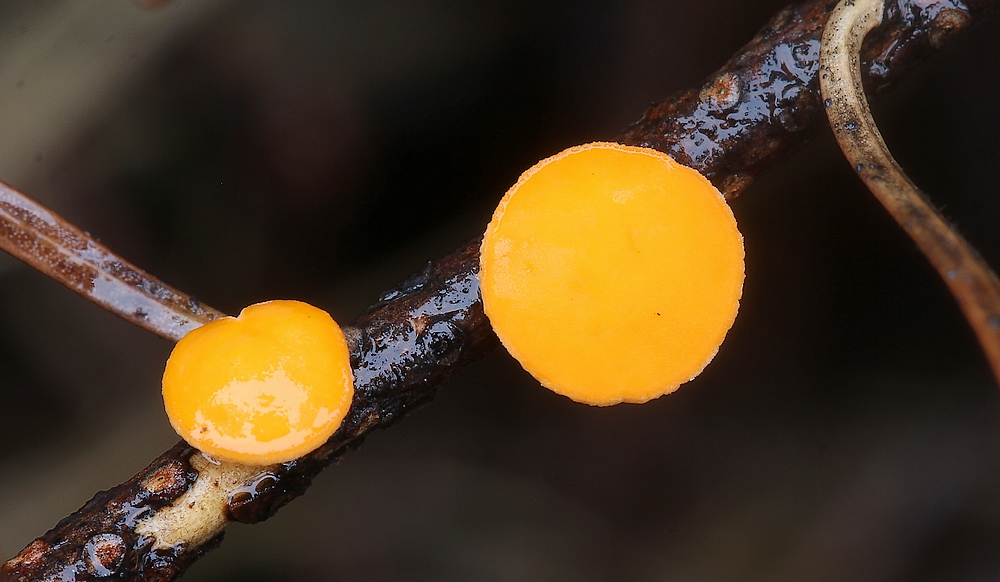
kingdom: Fungi
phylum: Ascomycota
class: Pezizomycetes
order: Pezizales
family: Sarcoscyphaceae
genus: Pithya
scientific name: Pithya vulgaris
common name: stor dukatbæger
